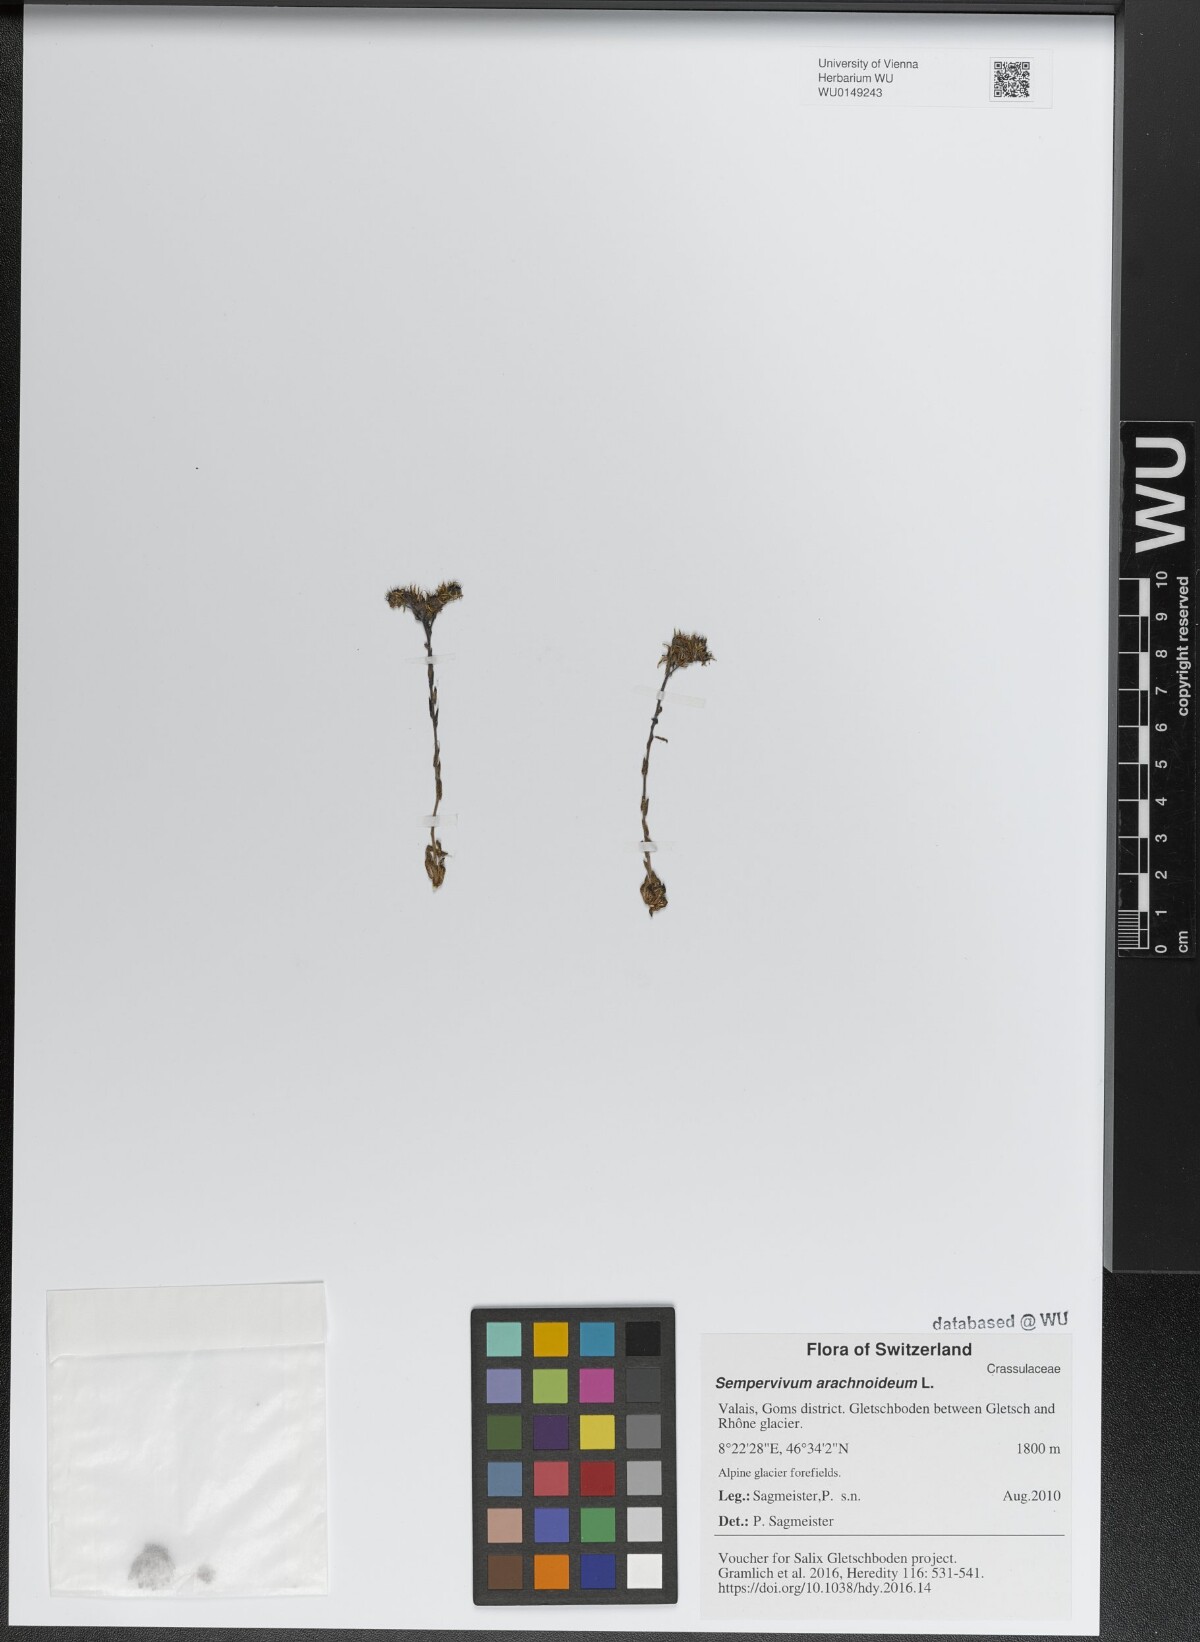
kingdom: Plantae
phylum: Tracheophyta
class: Magnoliopsida
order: Saxifragales
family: Crassulaceae
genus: Sempervivum
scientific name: Sempervivum arachnoideum
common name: Cobweb house-leek
